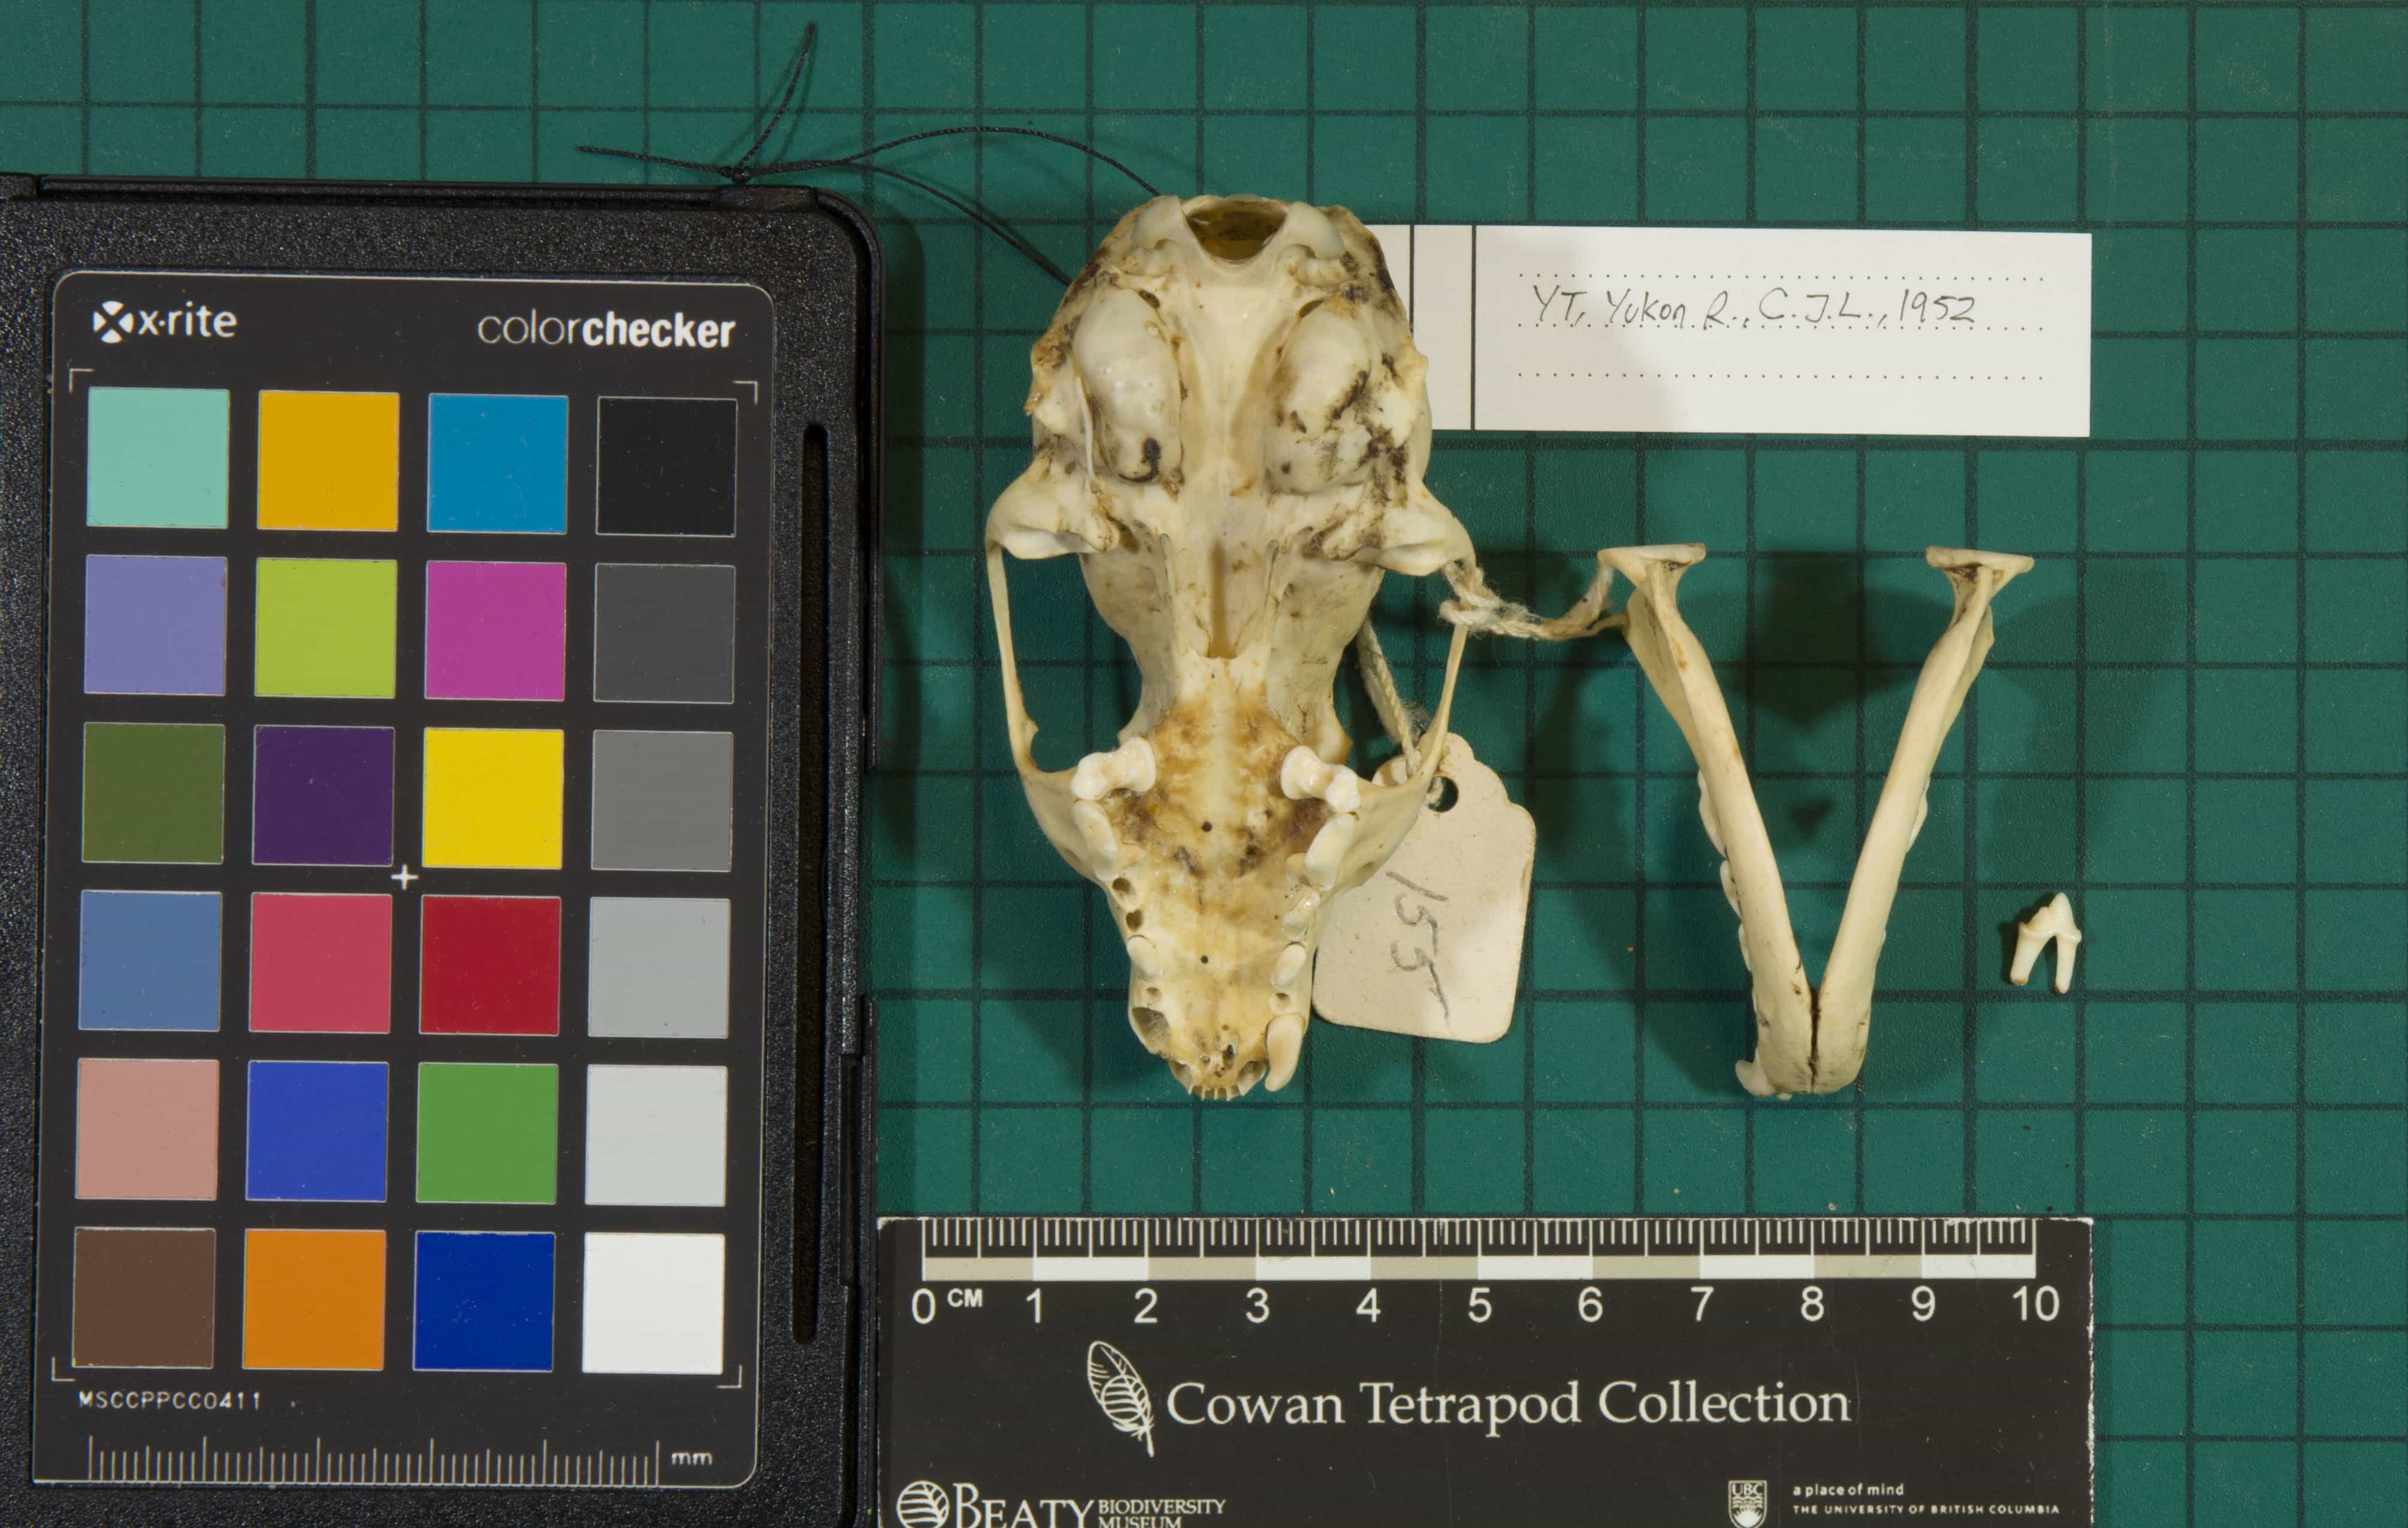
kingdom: Animalia
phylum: Chordata
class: Mammalia
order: Carnivora
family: Mustelidae
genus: Martes
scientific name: Martes americana
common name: American Marten
